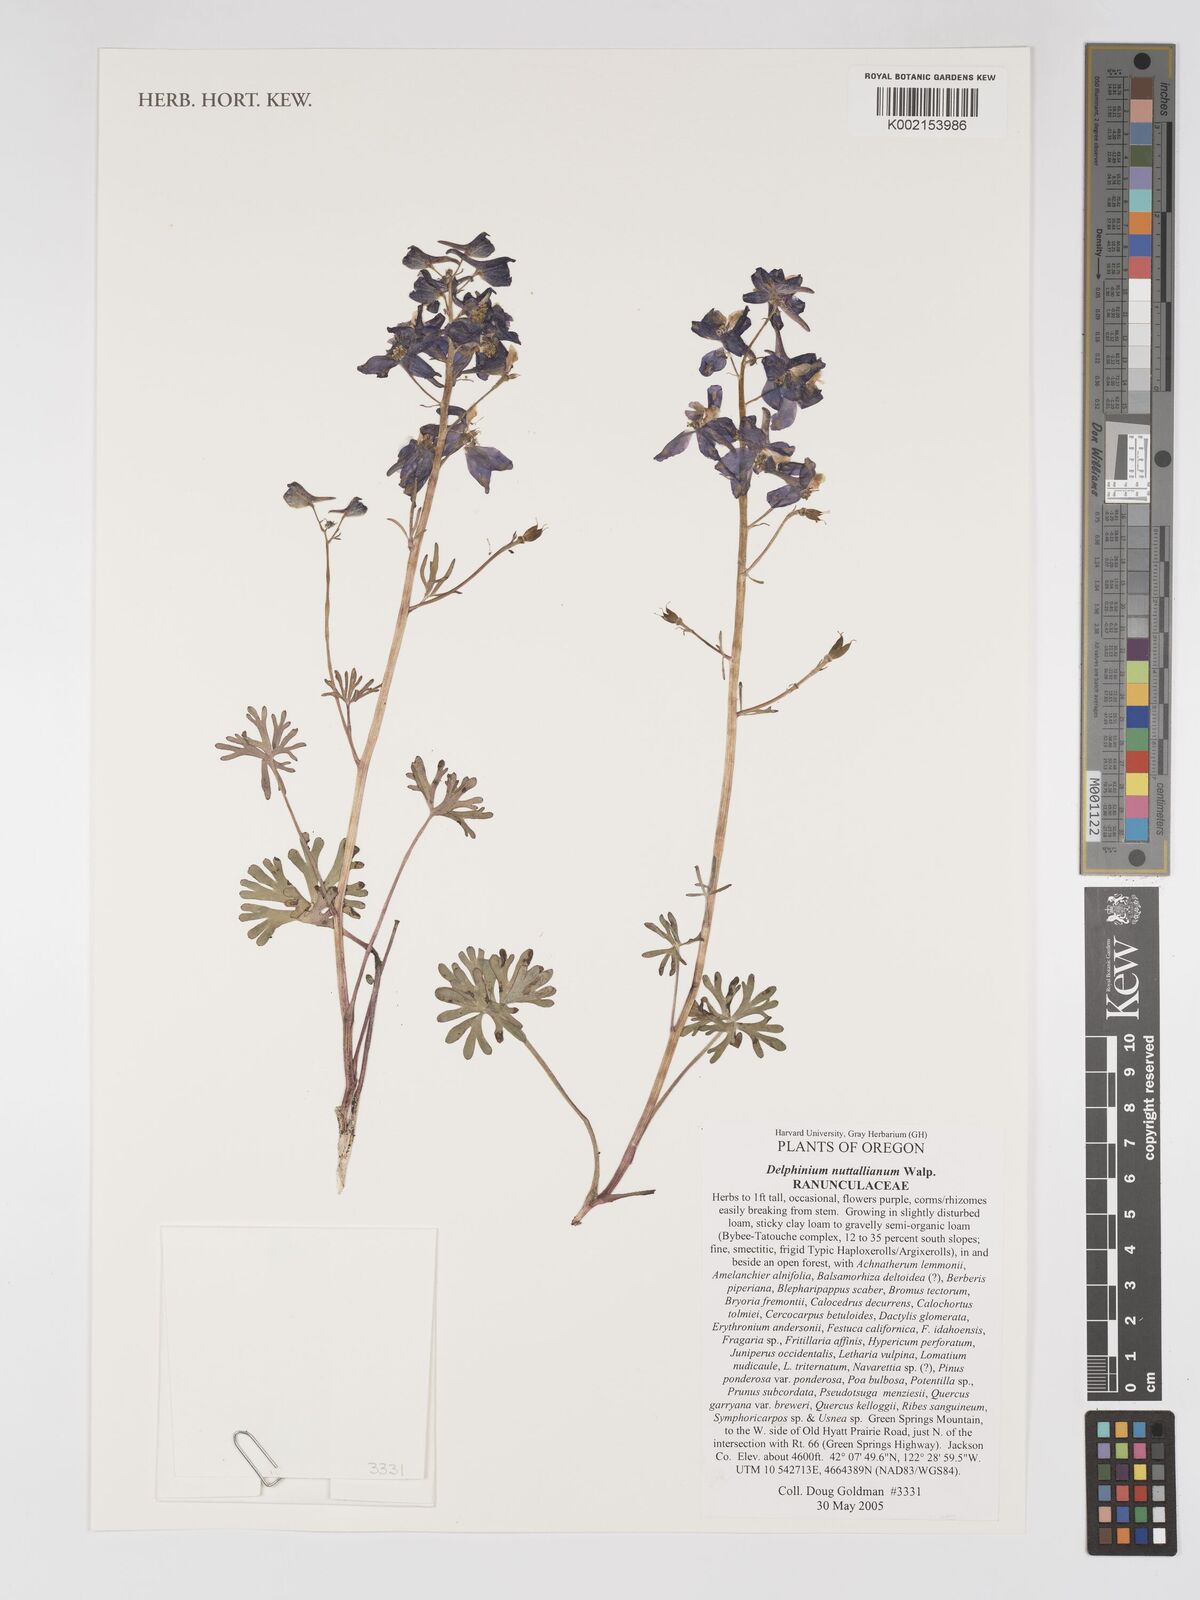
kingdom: Plantae
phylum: Tracheophyta
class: Magnoliopsida
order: Ranunculales
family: Ranunculaceae
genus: Delphinium
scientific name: Delphinium nuttallianum
